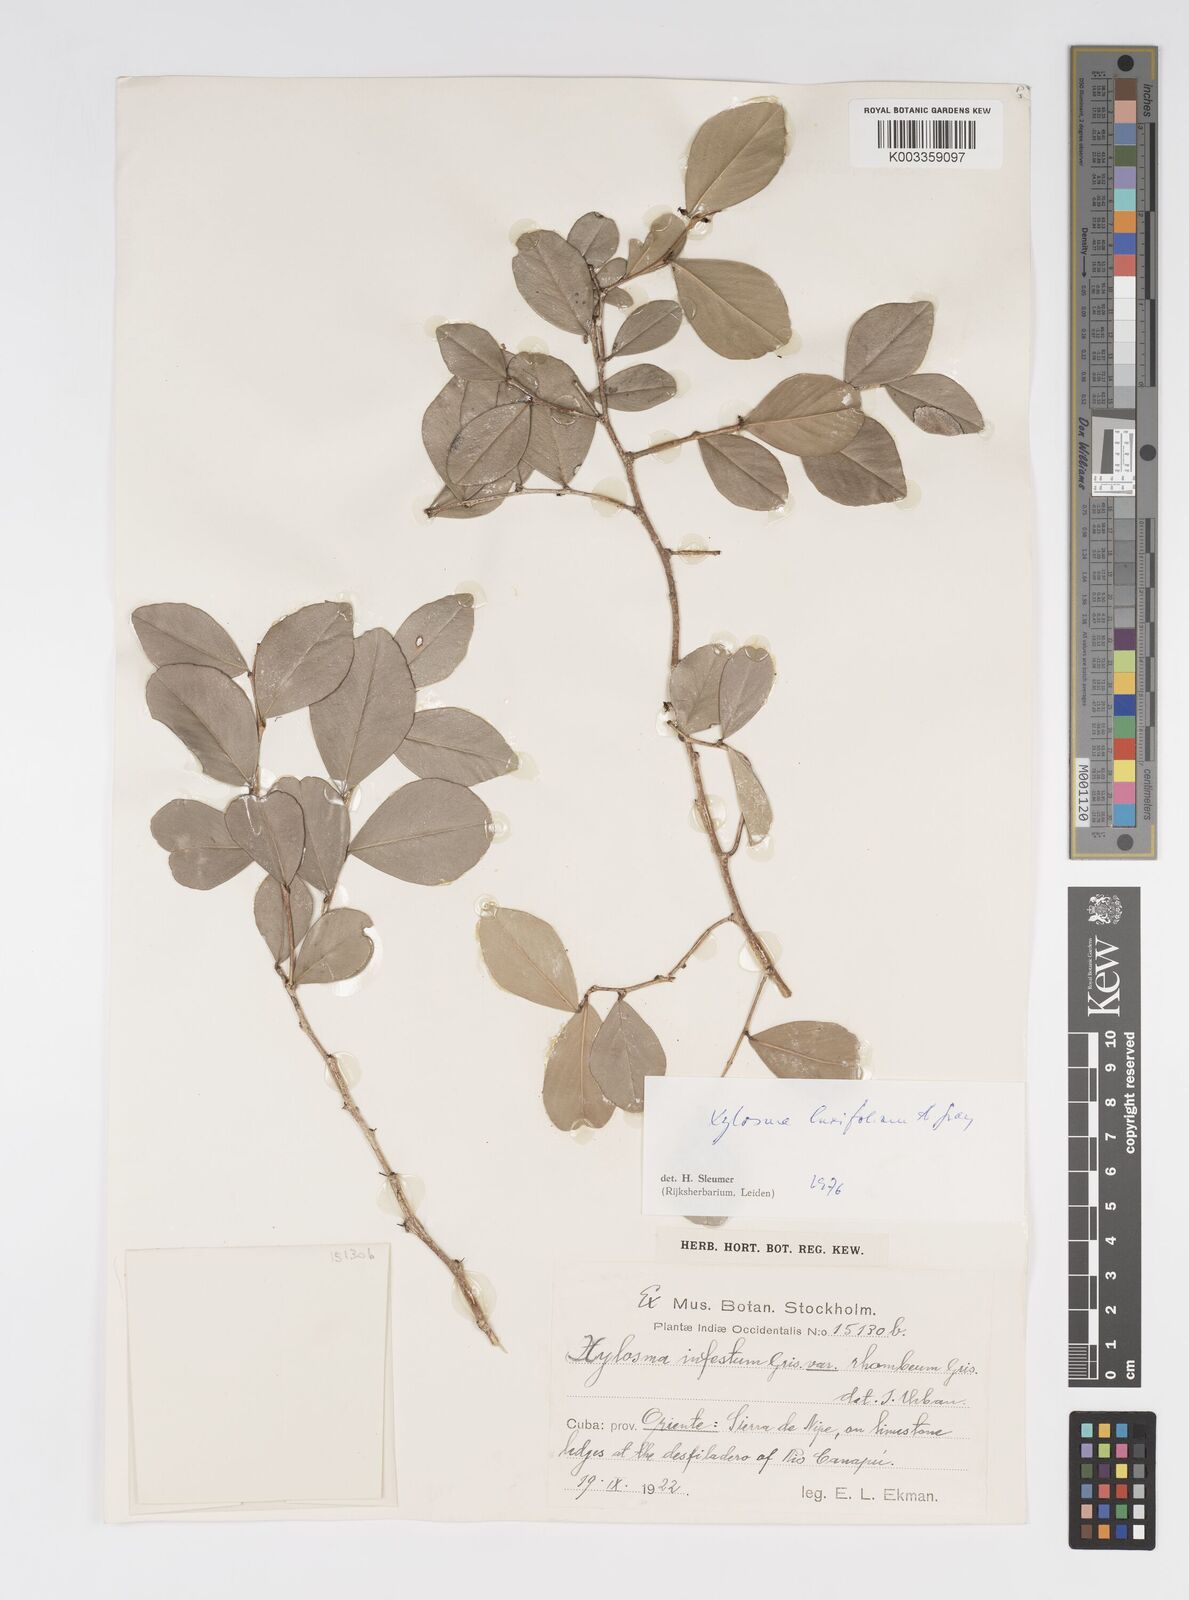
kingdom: Plantae
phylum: Tracheophyta
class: Magnoliopsida
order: Malpighiales
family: Salicaceae
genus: Xylosma
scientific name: Xylosma buxifolia
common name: Cockspur
